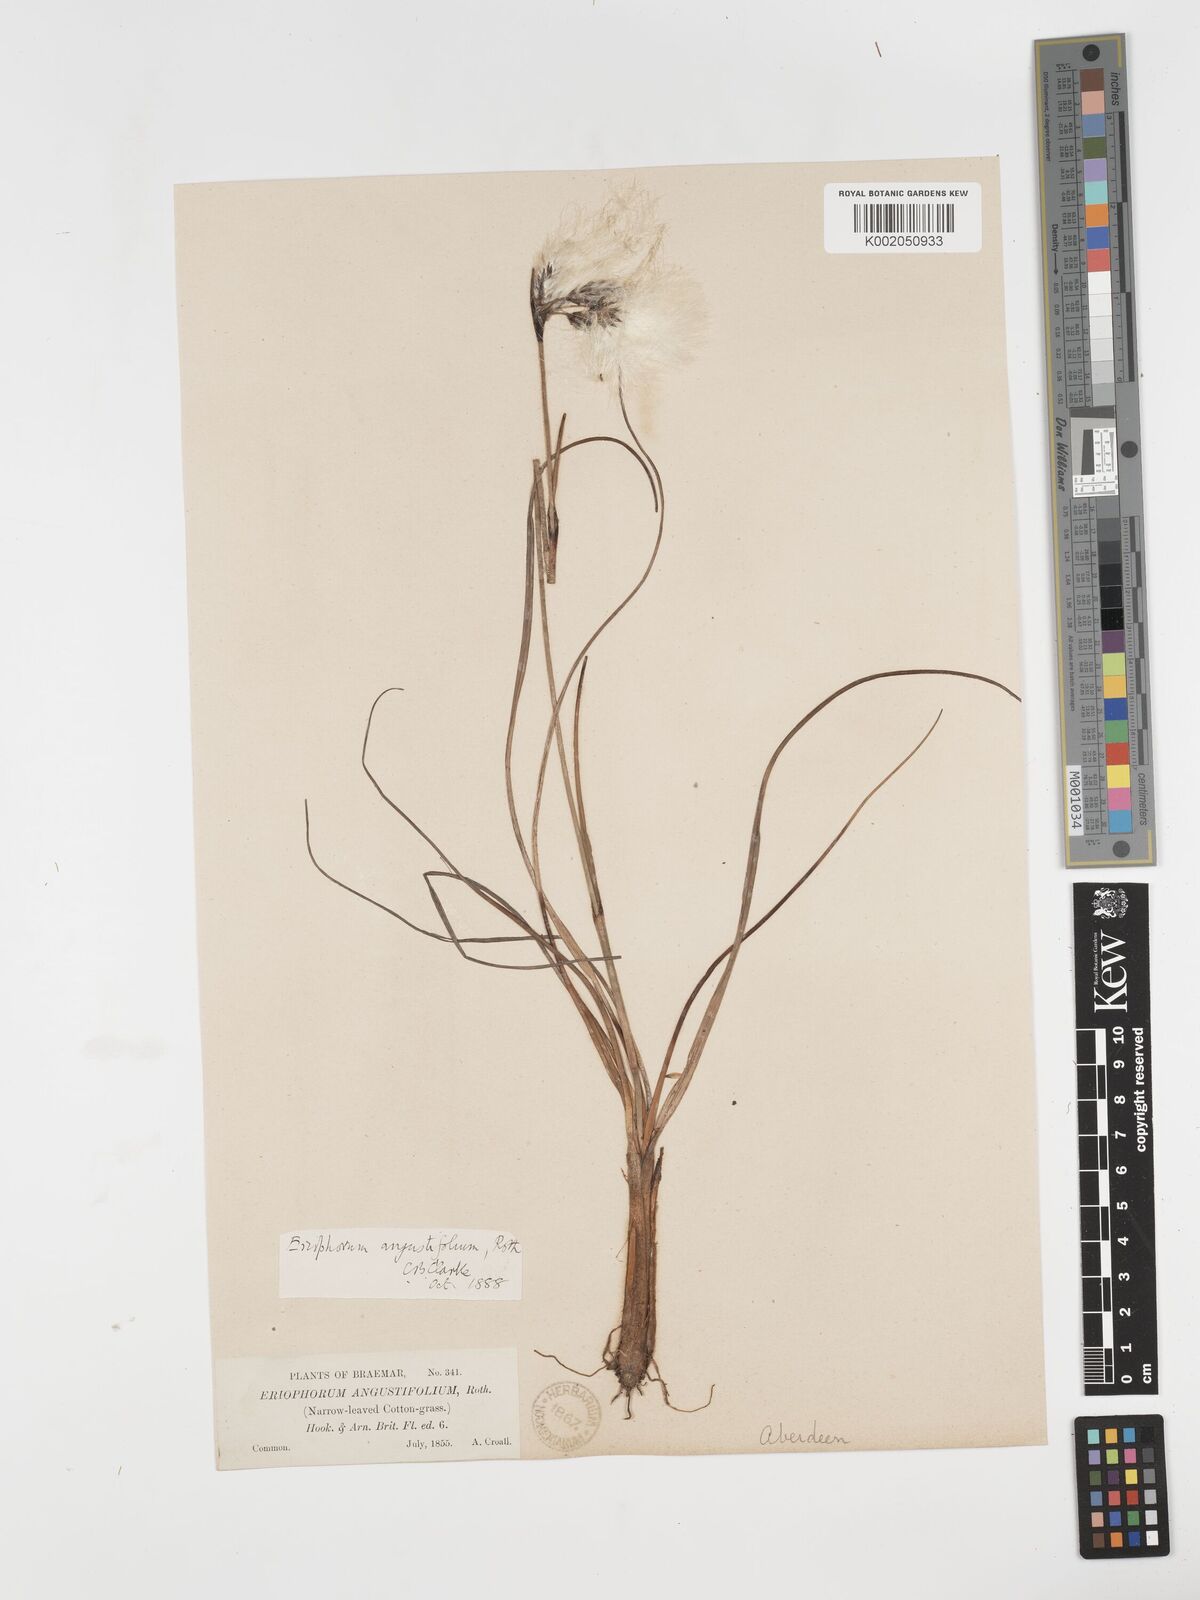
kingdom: Plantae
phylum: Tracheophyta
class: Liliopsida
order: Poales
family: Cyperaceae
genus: Eriophorum
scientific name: Eriophorum angustifolium
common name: Common cottongrass
